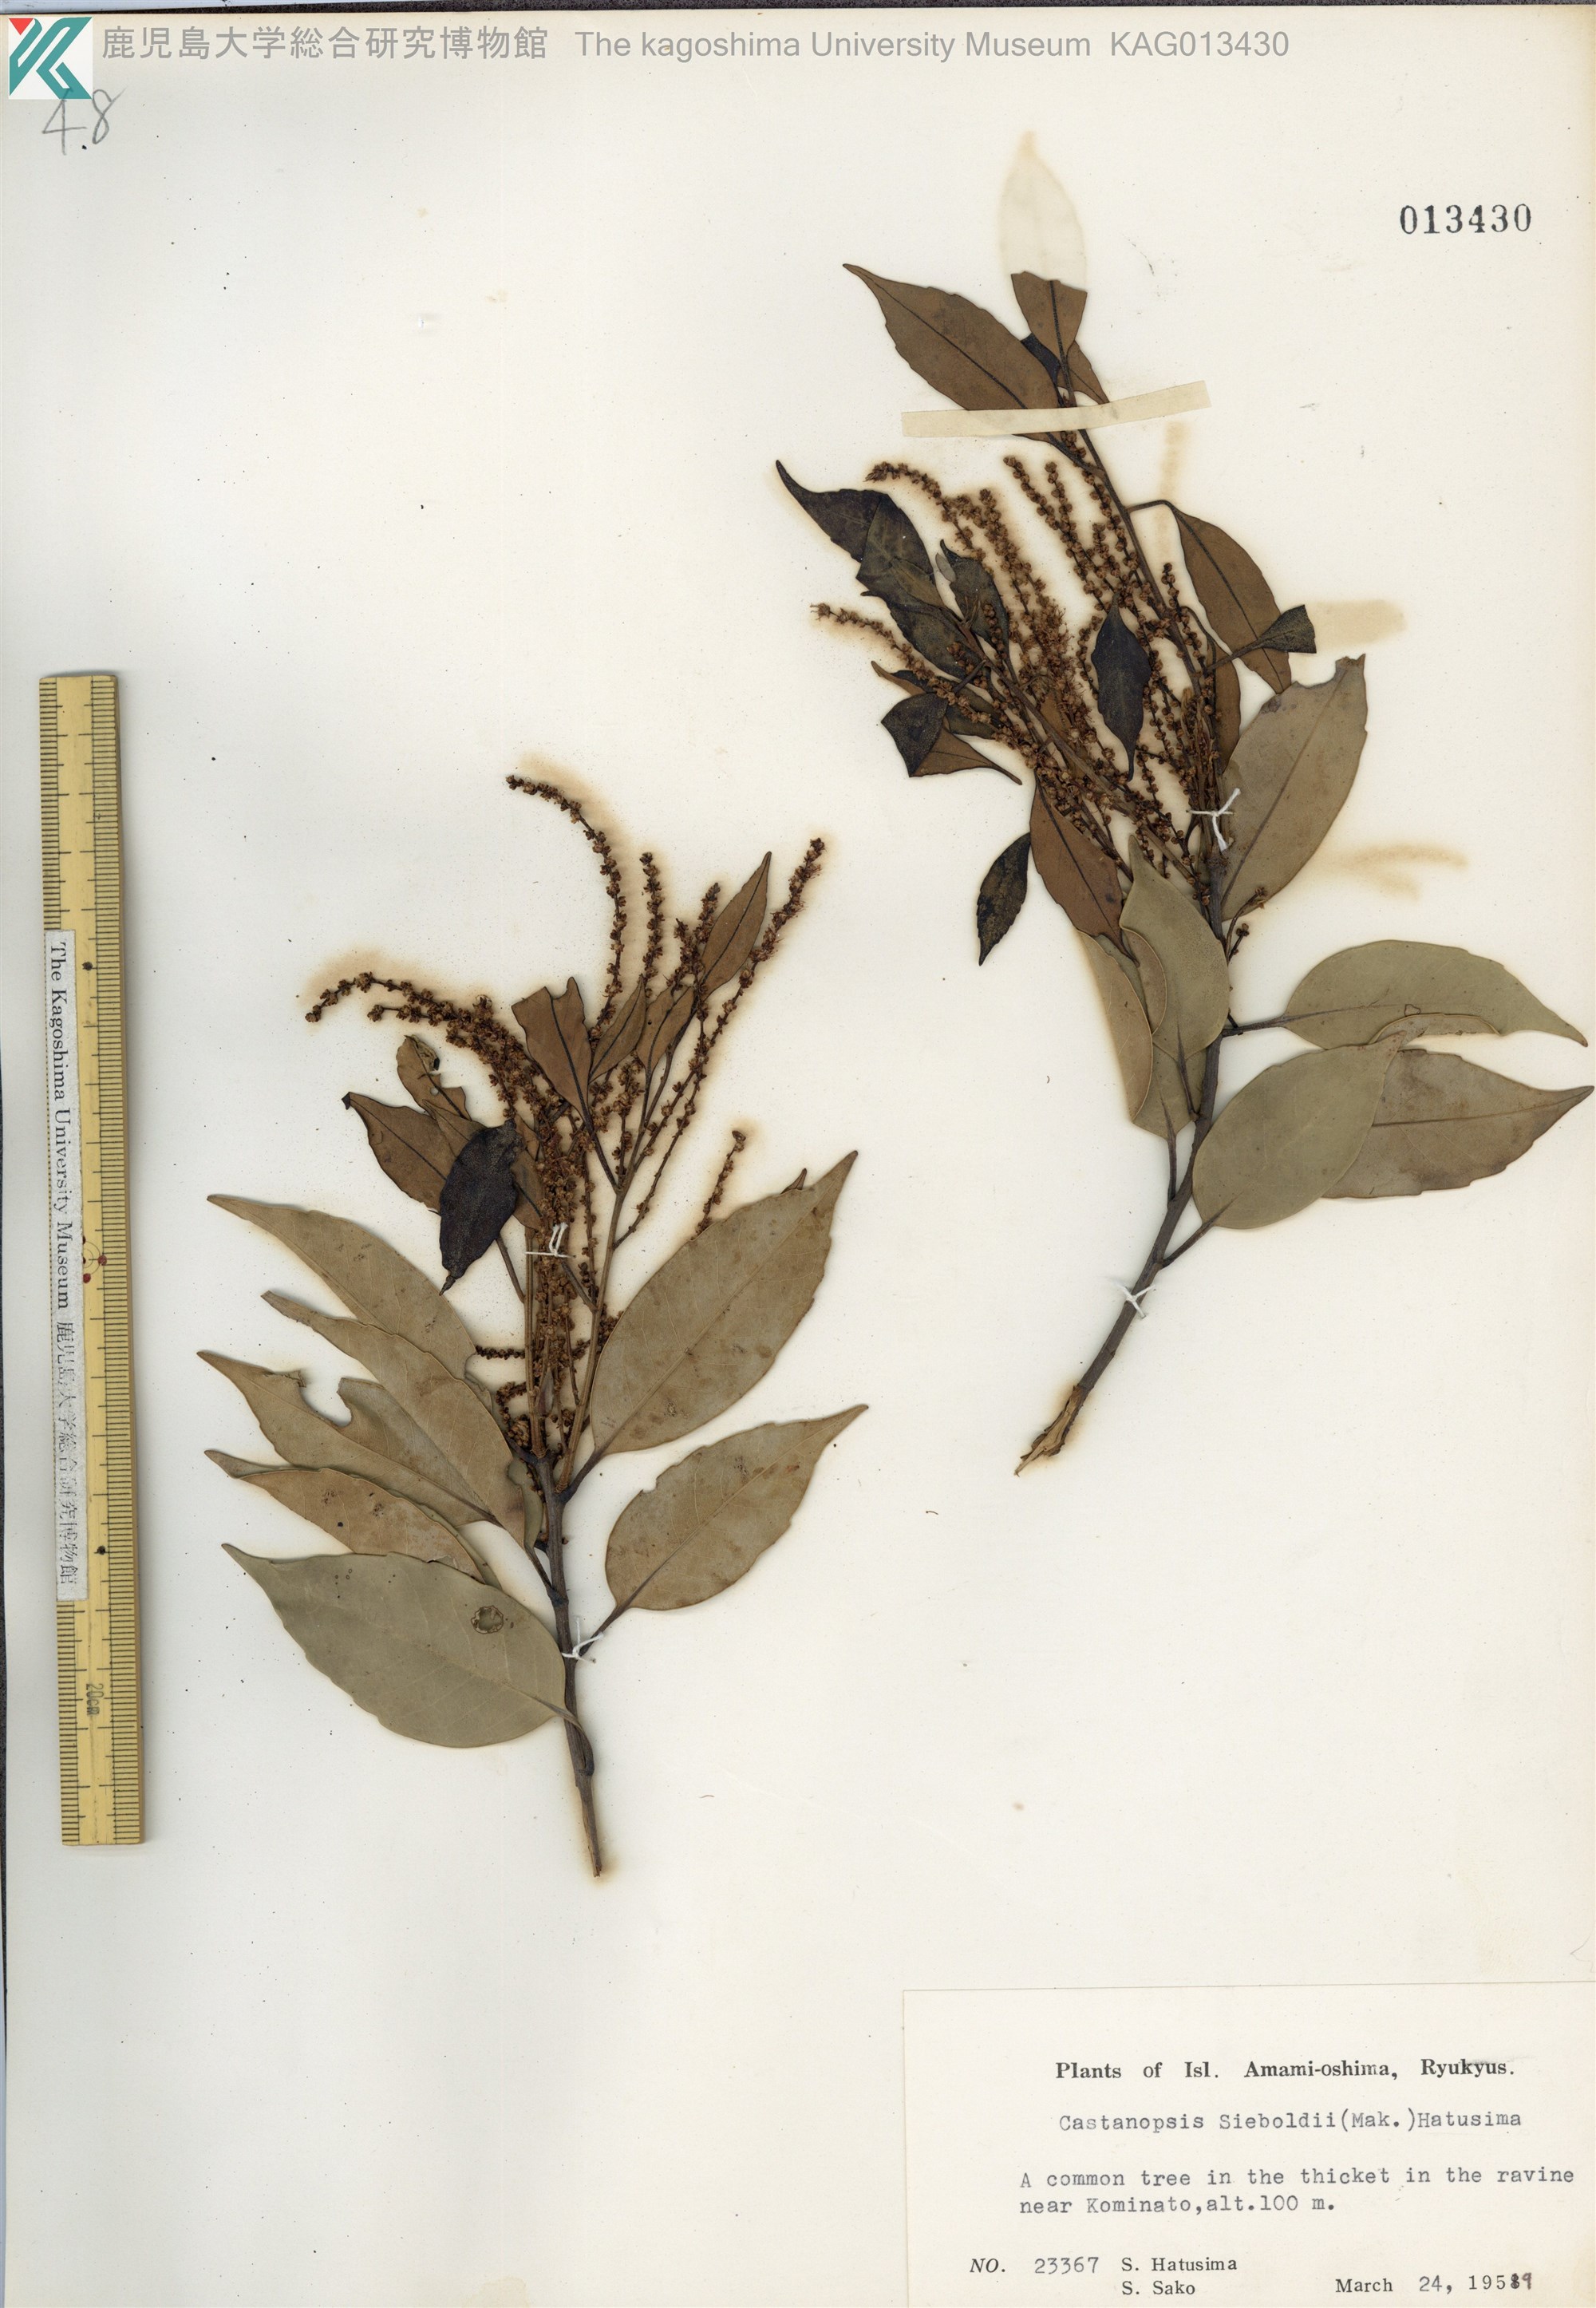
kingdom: Plantae
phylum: Tracheophyta
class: Magnoliopsida
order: Fagales
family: Fagaceae
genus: Castanopsis
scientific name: Castanopsis sieboldii
